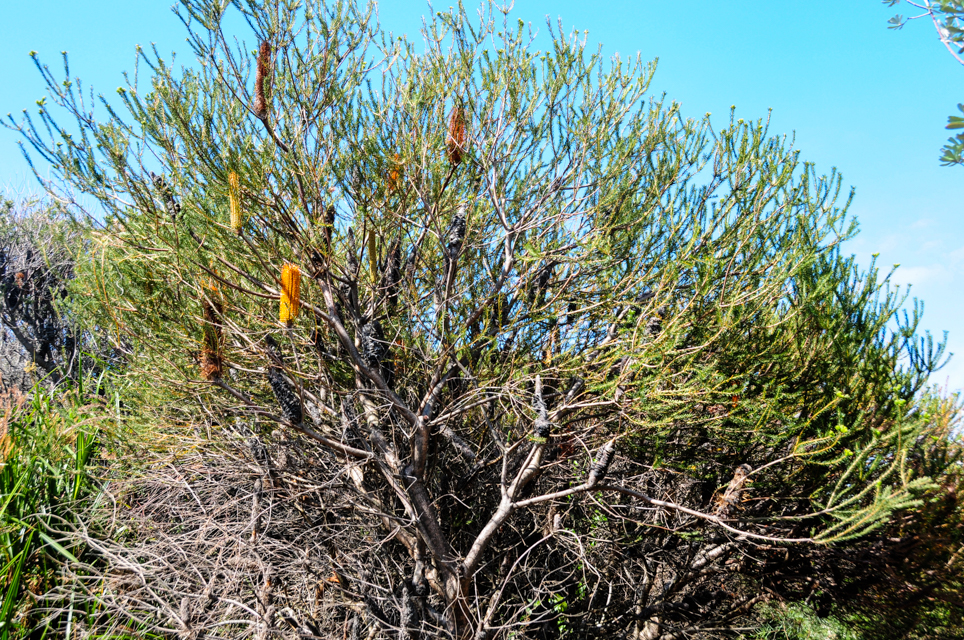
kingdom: Plantae
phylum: Tracheophyta
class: Magnoliopsida
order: Proteales
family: Proteaceae
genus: Banksia
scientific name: Banksia ericifolia
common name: Heath-leaf banksia
